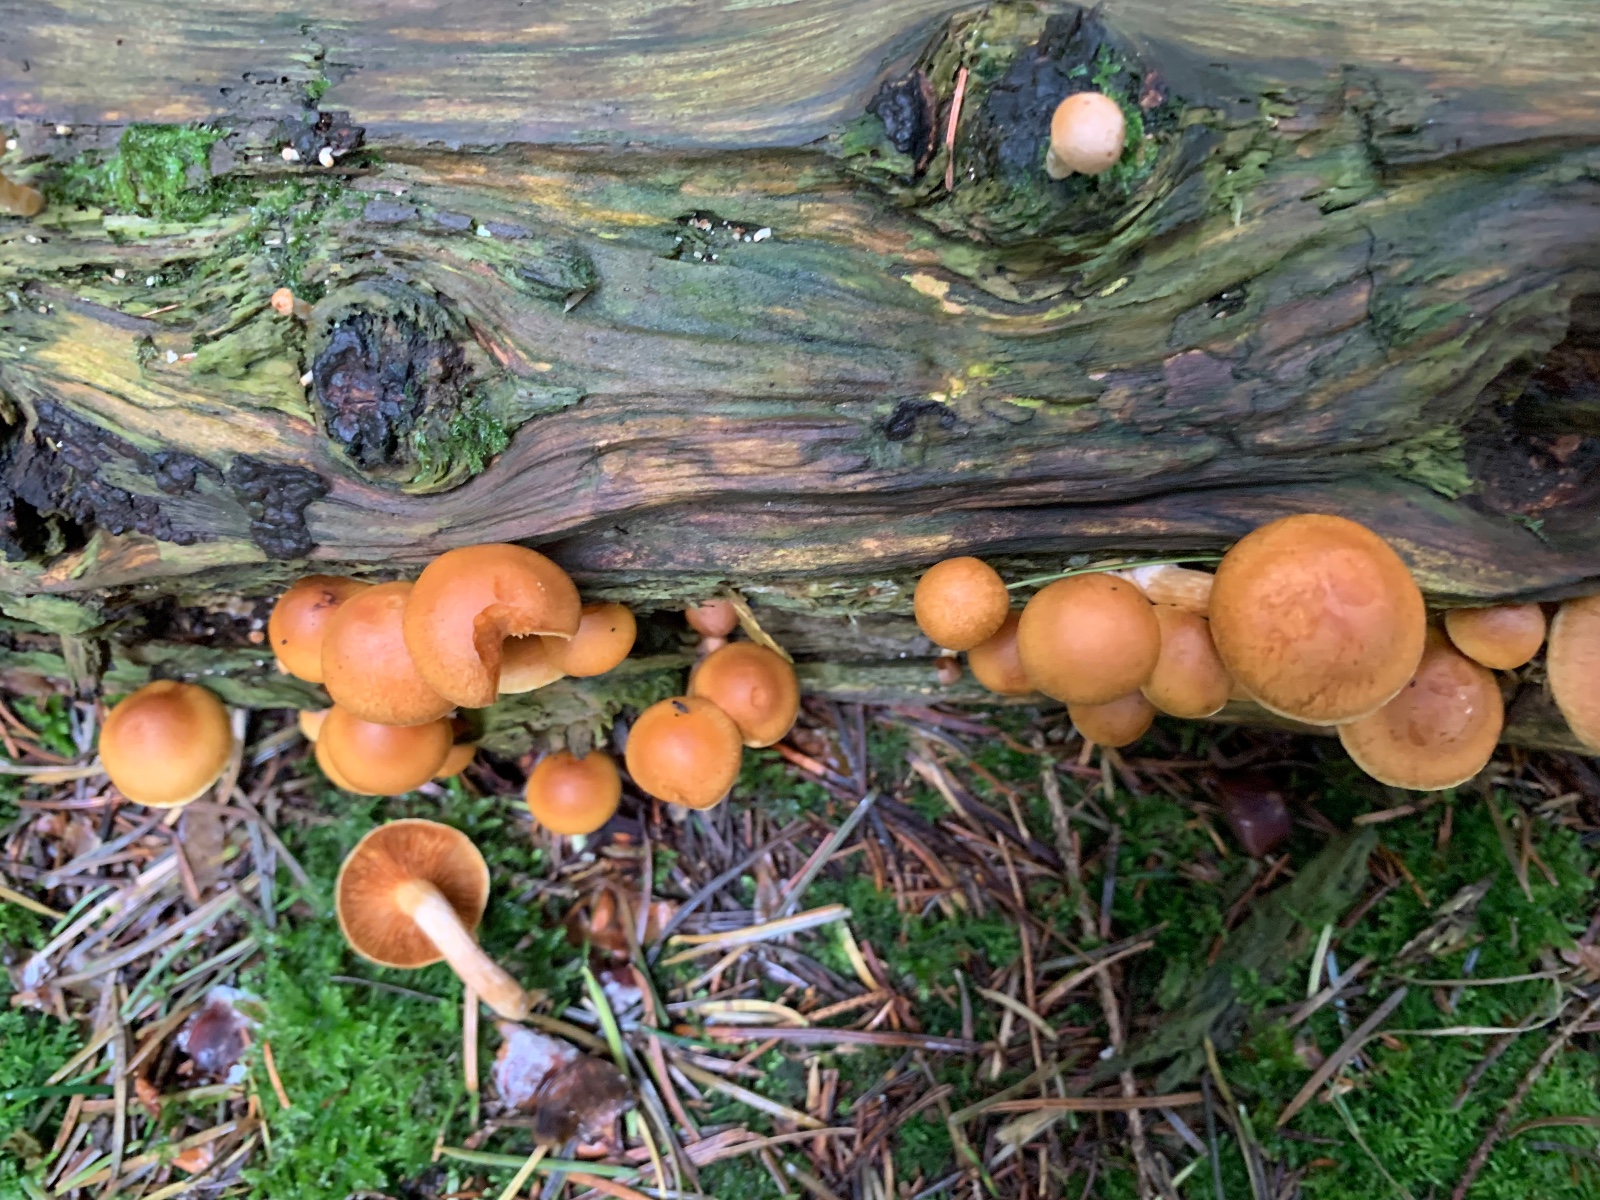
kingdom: Fungi
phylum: Basidiomycota
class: Agaricomycetes
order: Agaricales
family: Hymenogastraceae
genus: Gymnopilus
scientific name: Gymnopilus penetrans
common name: plettet flammehat
